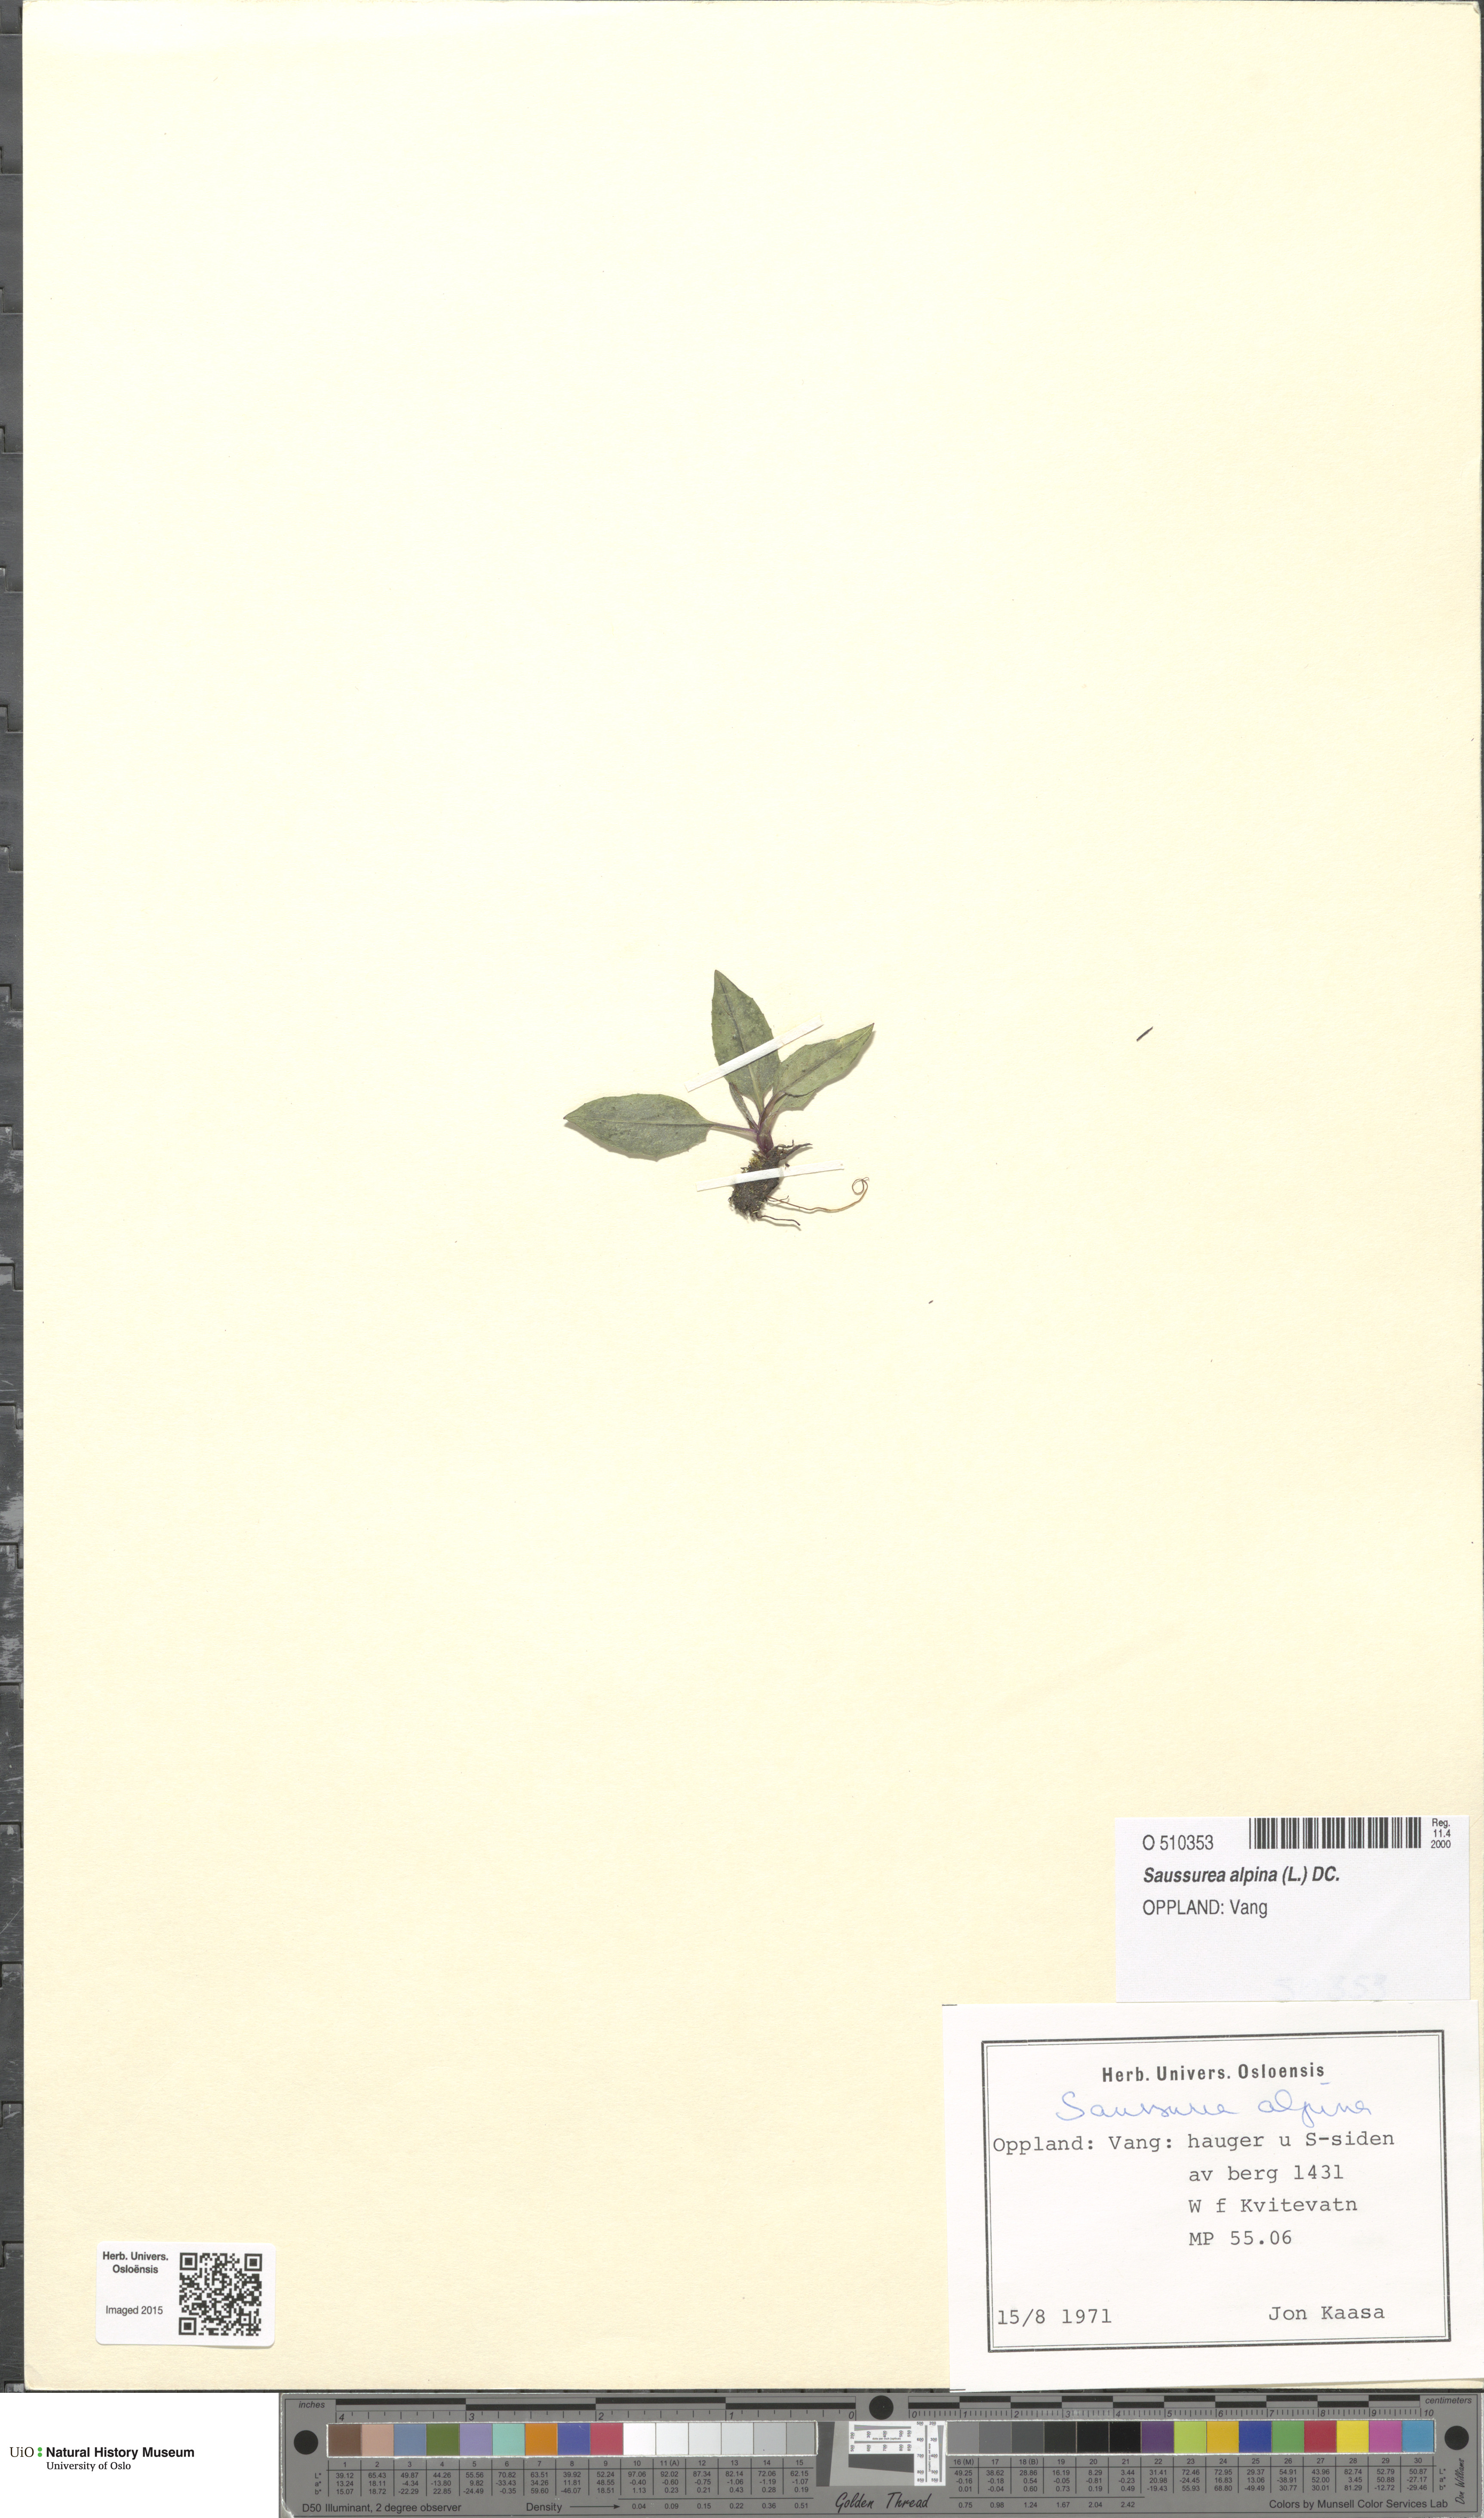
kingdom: Plantae
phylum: Tracheophyta
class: Magnoliopsida
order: Asterales
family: Asteraceae
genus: Saussurea
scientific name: Saussurea alpina
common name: Alpine saw-wort
